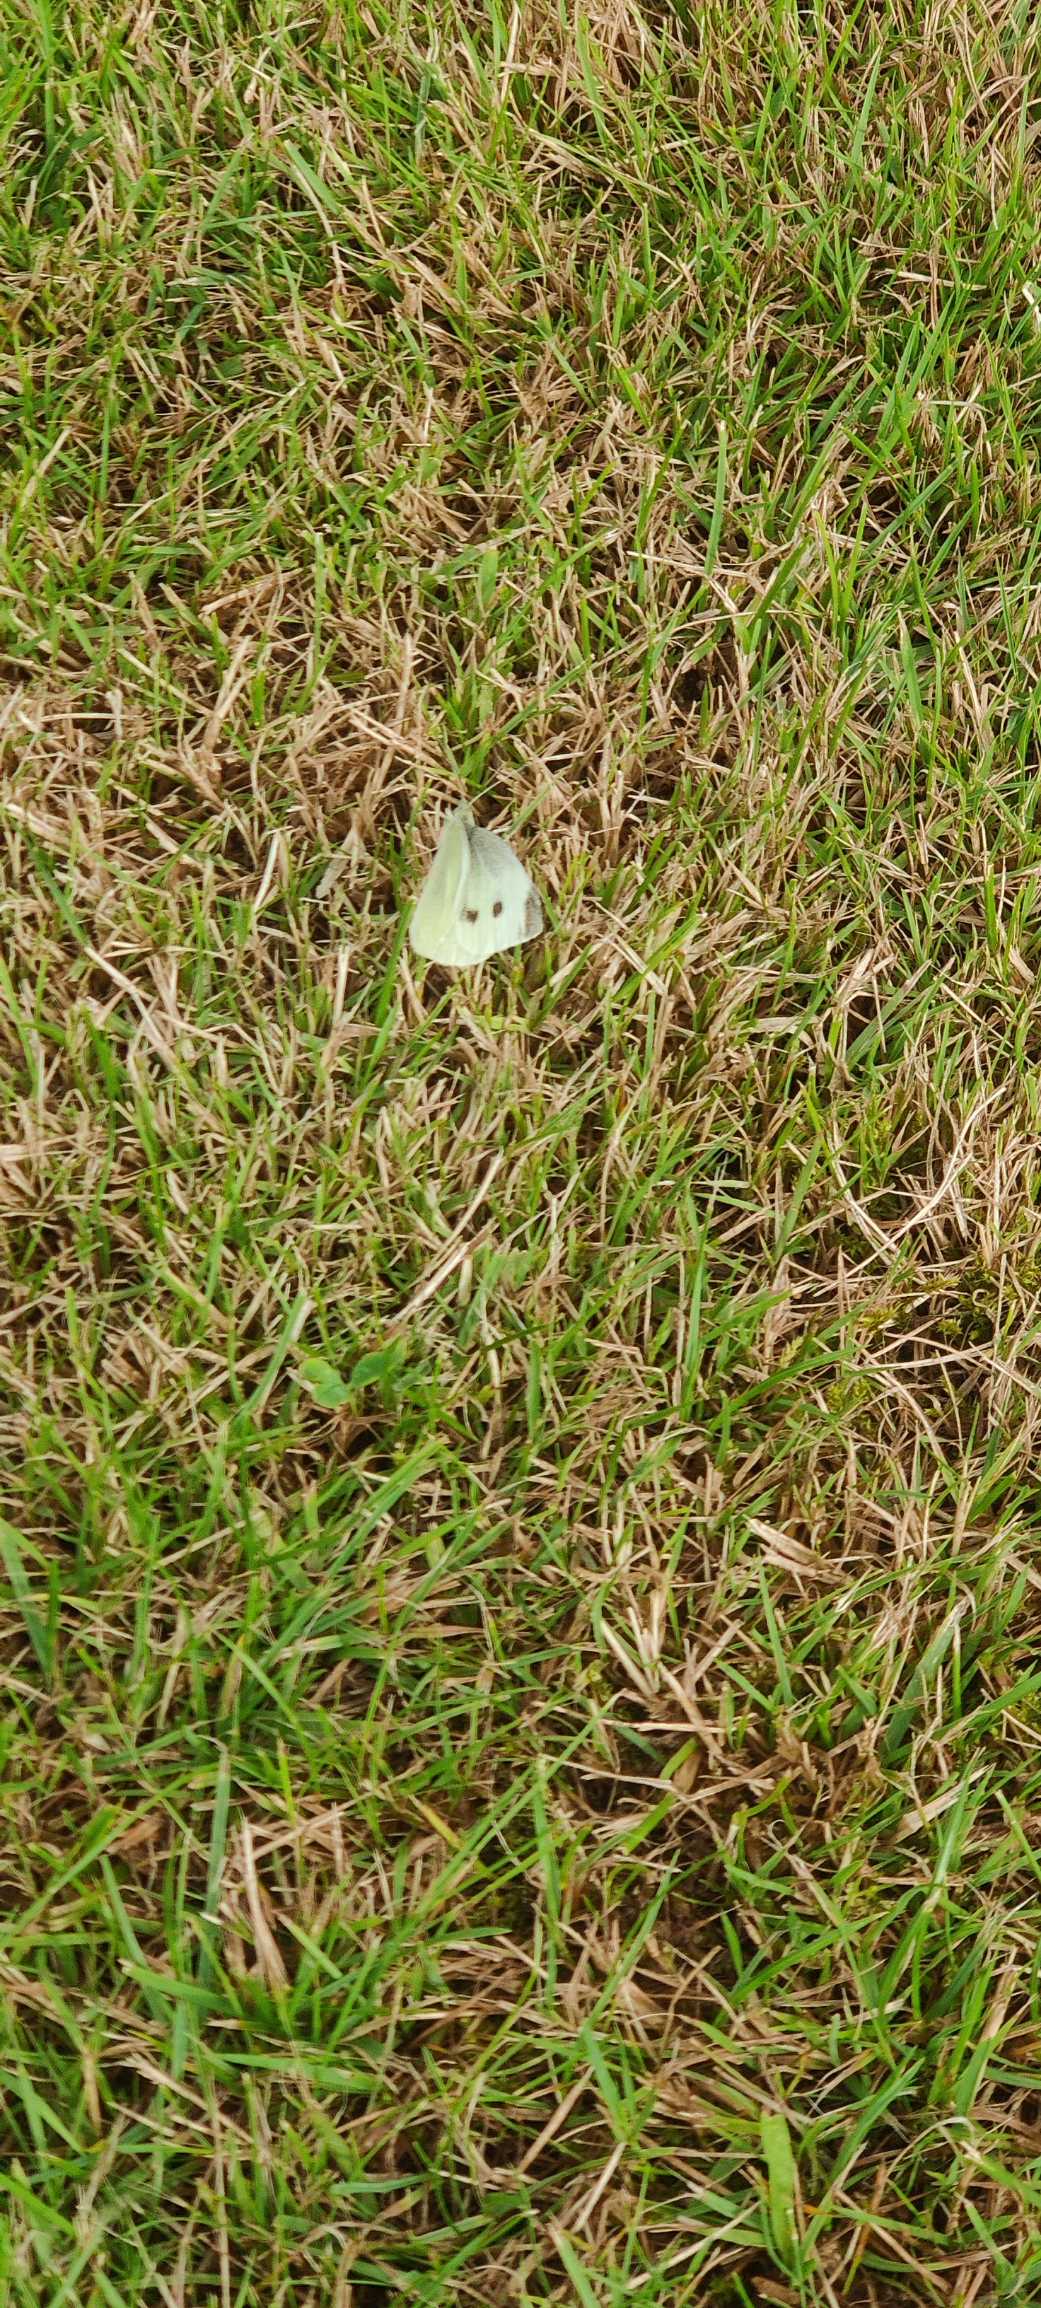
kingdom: Animalia
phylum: Arthropoda
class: Insecta
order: Lepidoptera
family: Pieridae
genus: Pieris
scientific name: Pieris rapae
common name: Lille kålsommerfugl
